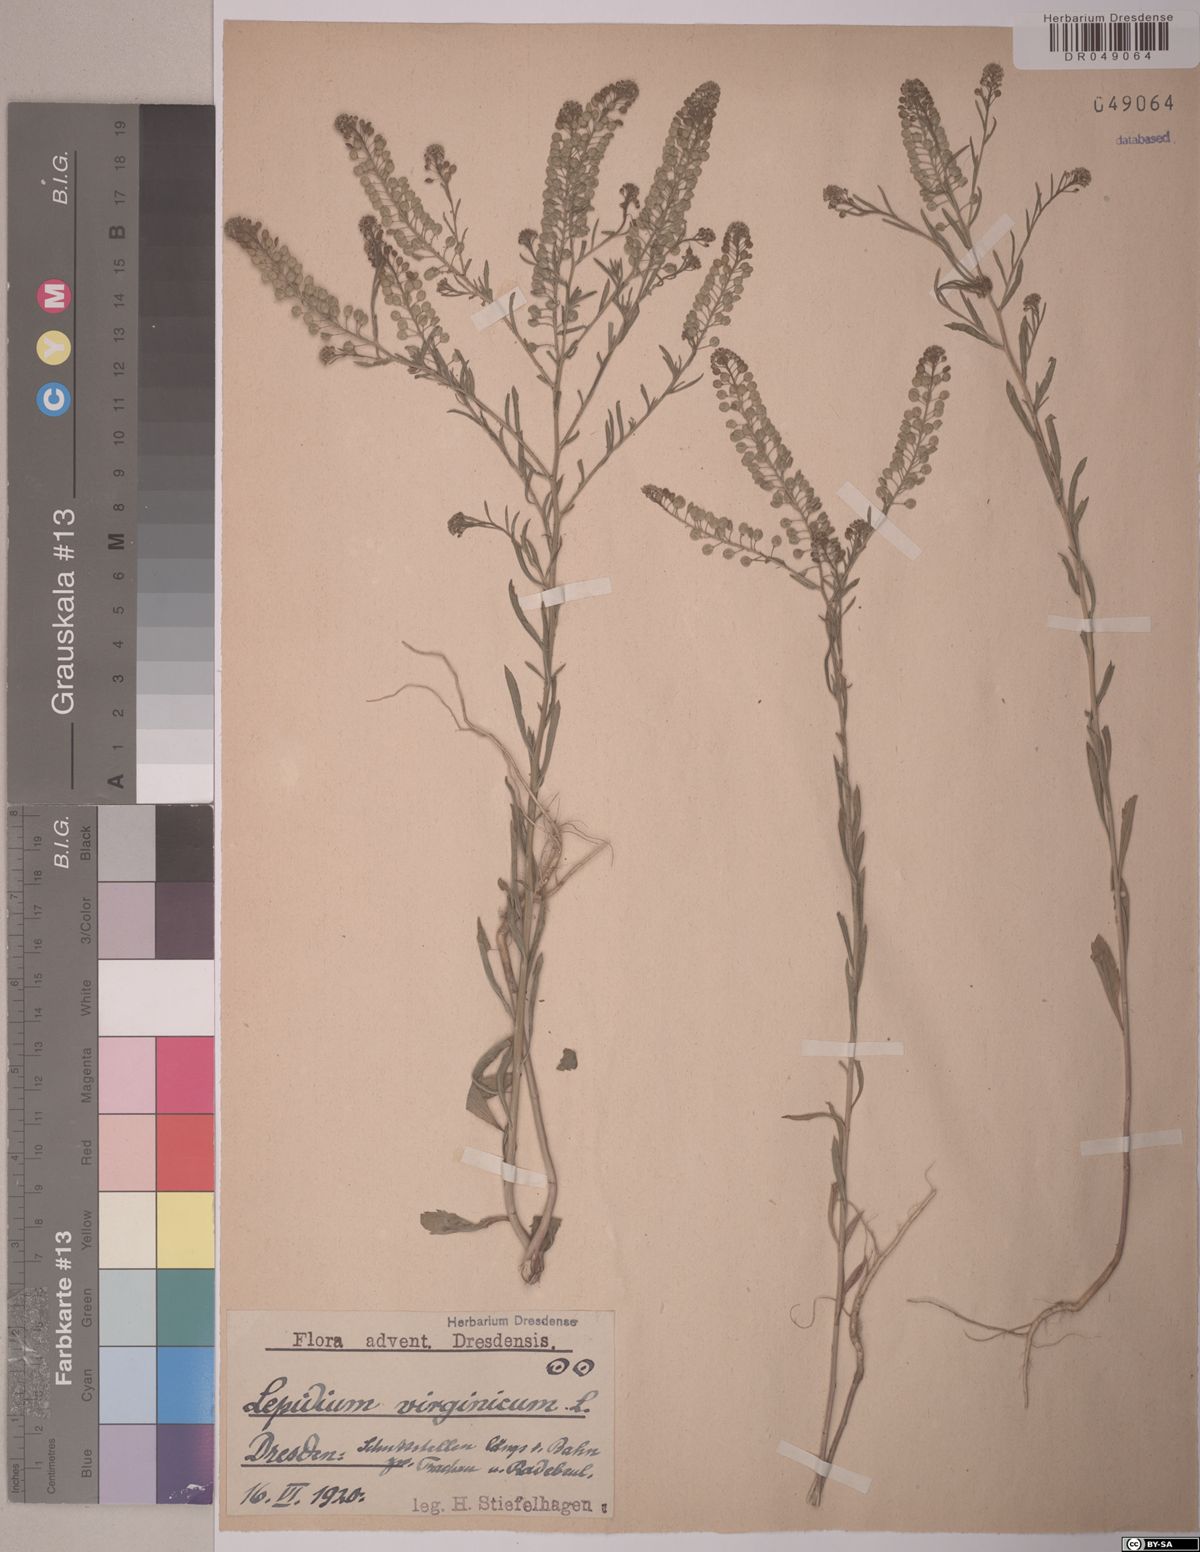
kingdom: Plantae
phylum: Tracheophyta
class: Magnoliopsida
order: Brassicales
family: Brassicaceae
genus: Lepidium
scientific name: Lepidium virginicum
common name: Least pepperwort
